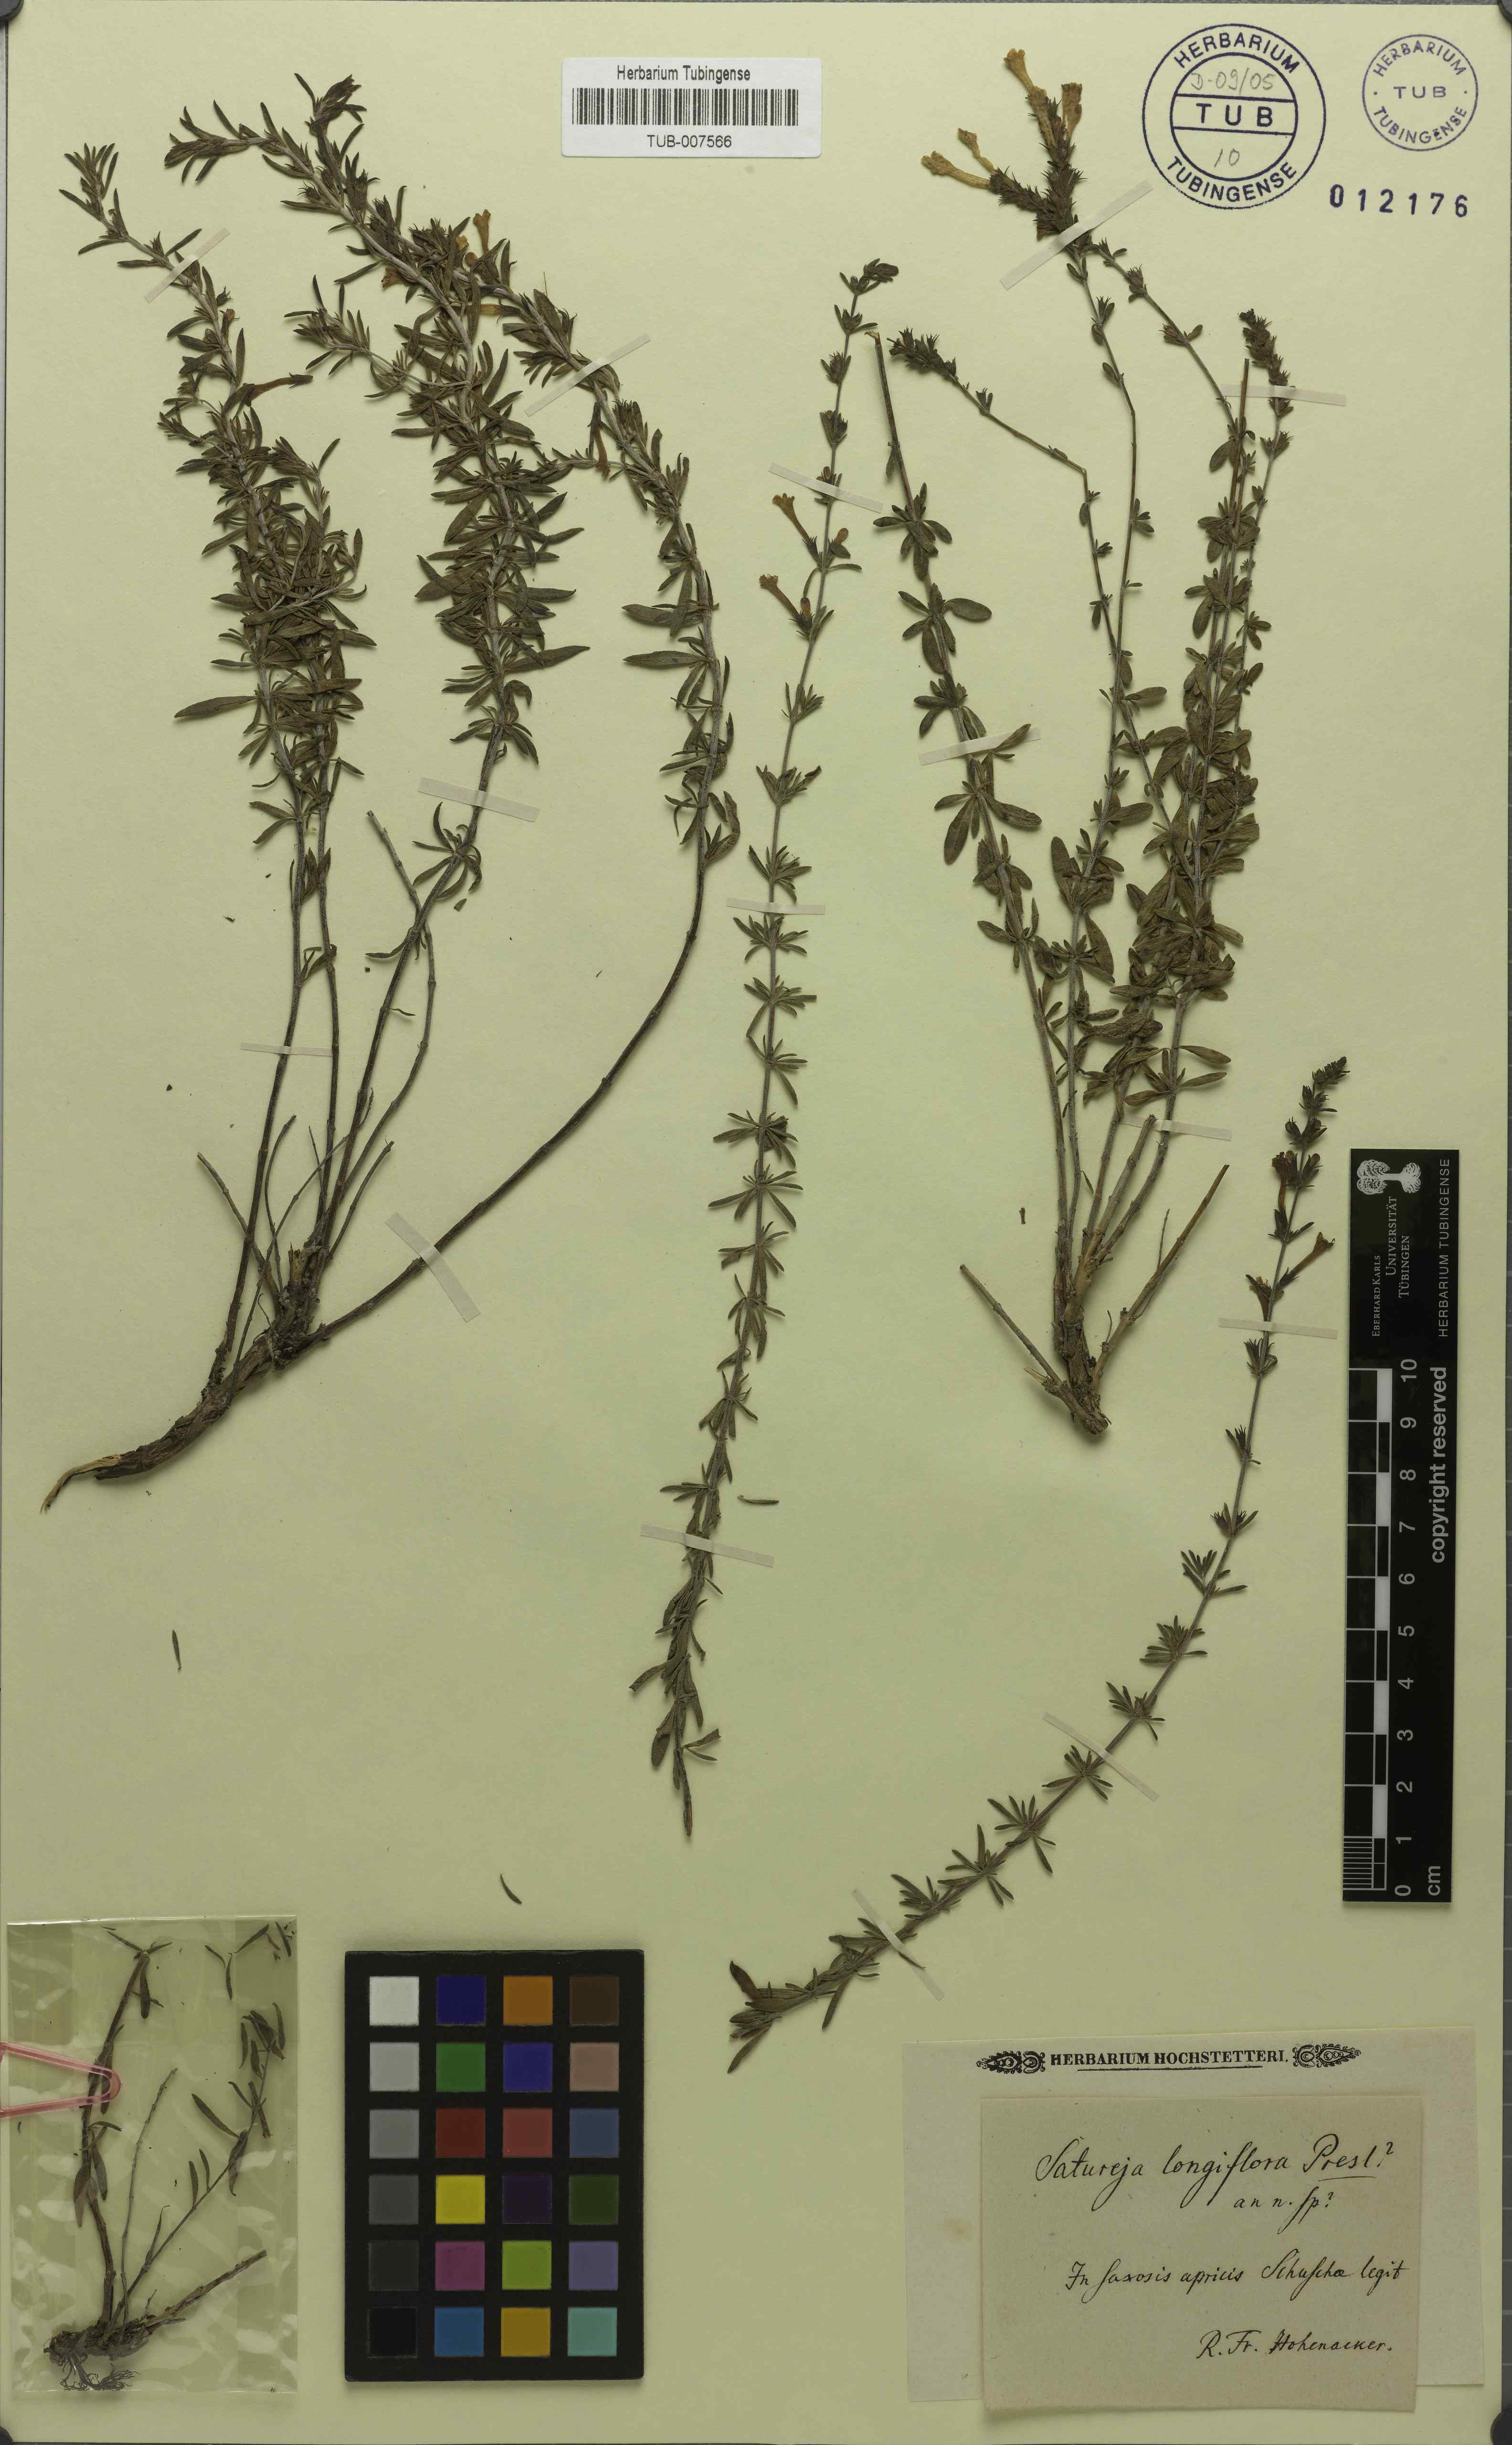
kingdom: Plantae
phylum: Tracheophyta
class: Magnoliopsida
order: Lamiales
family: Lamiaceae
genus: Satureja
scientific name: Satureja macrantha
